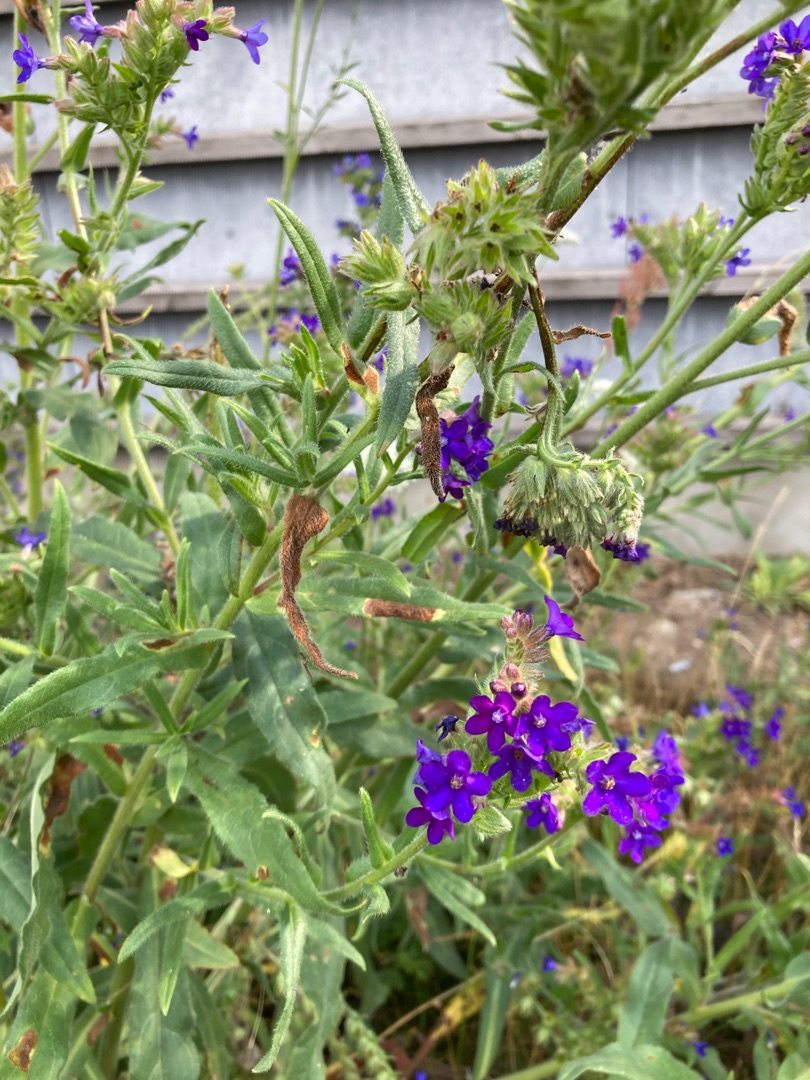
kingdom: Plantae
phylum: Tracheophyta
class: Magnoliopsida
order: Boraginales
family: Boraginaceae
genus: Anchusa
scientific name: Anchusa officinalis
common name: Læge-oksetunge
